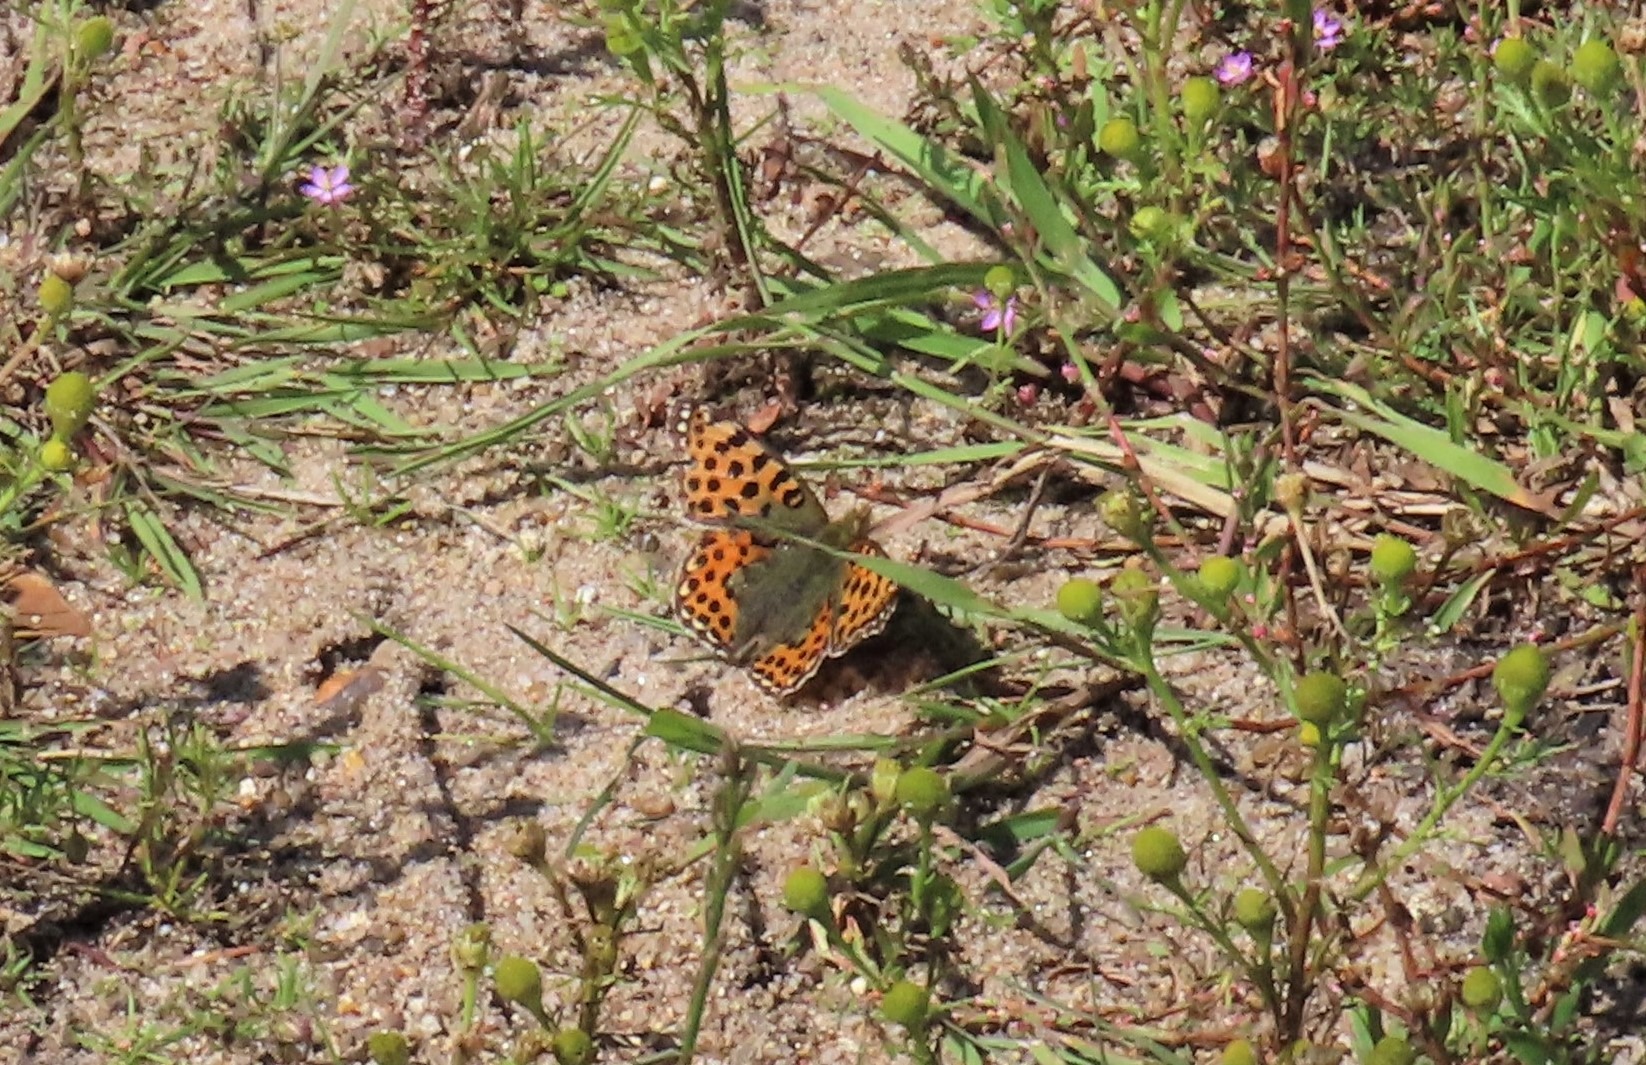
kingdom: Animalia
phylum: Arthropoda
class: Insecta
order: Lepidoptera
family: Nymphalidae
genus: Issoria
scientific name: Issoria lathonia
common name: Storplettet perlemorsommerfugl
